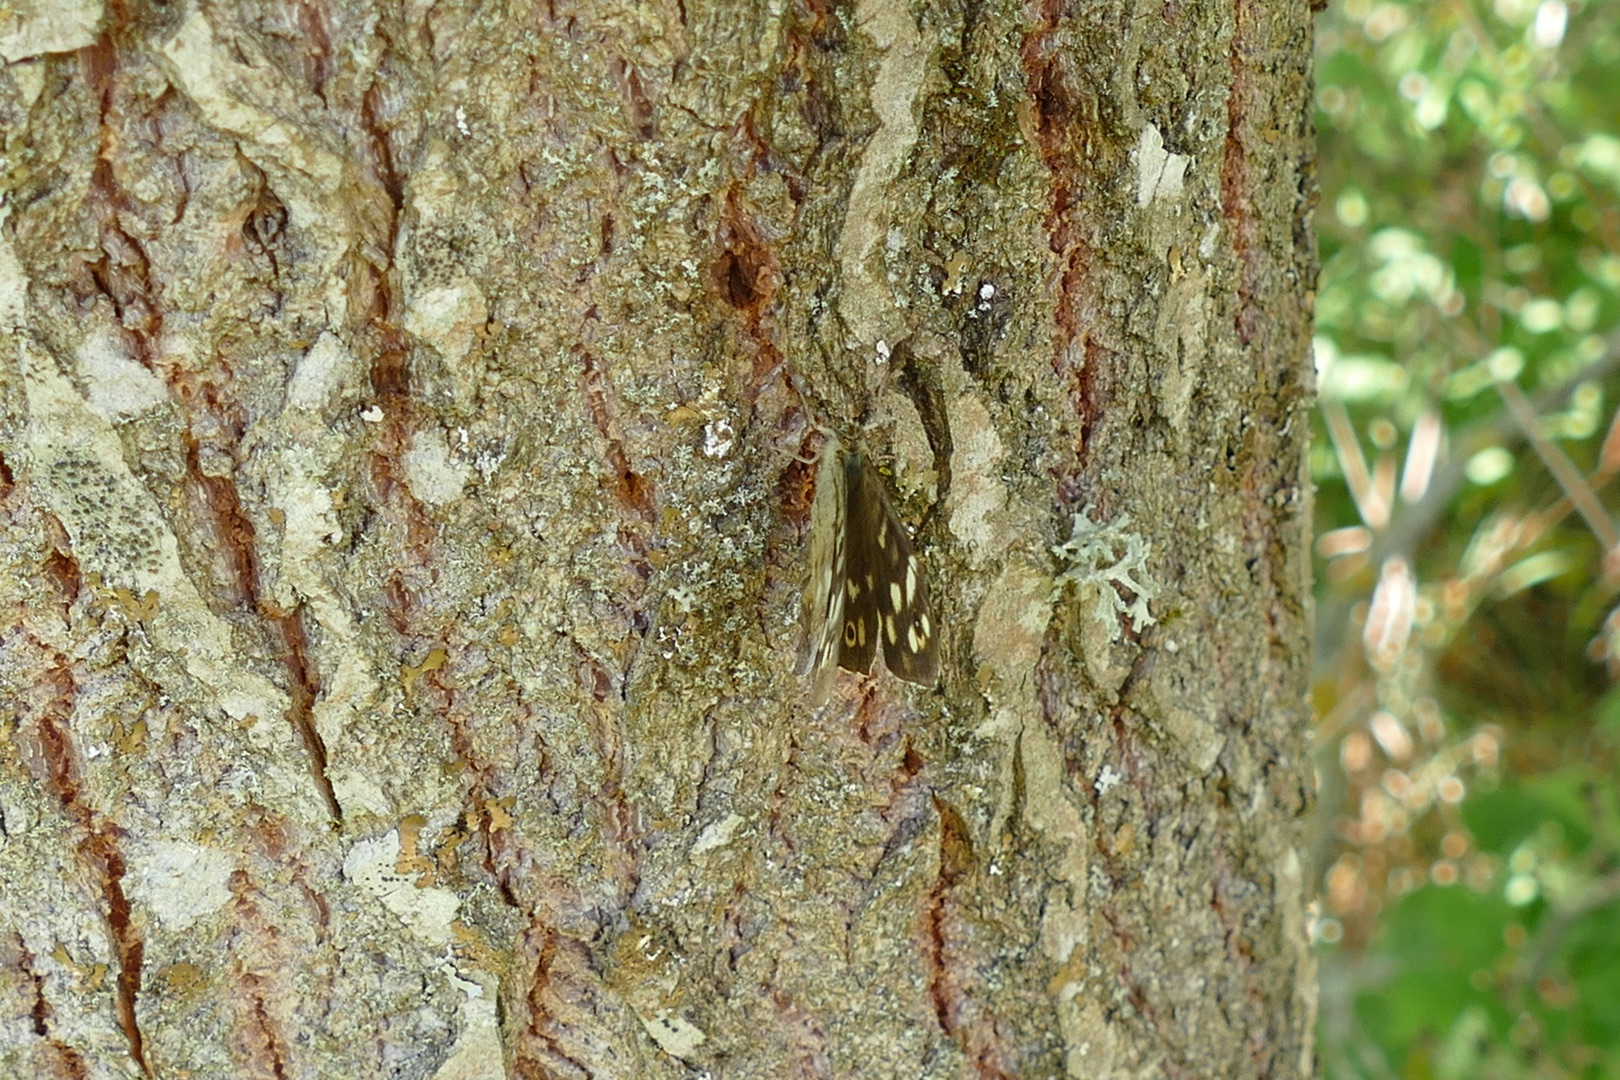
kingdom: Animalia
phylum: Arthropoda
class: Insecta
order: Lepidoptera
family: Nymphalidae
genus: Pararge
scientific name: Pararge aegeria
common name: Skovrandøje
